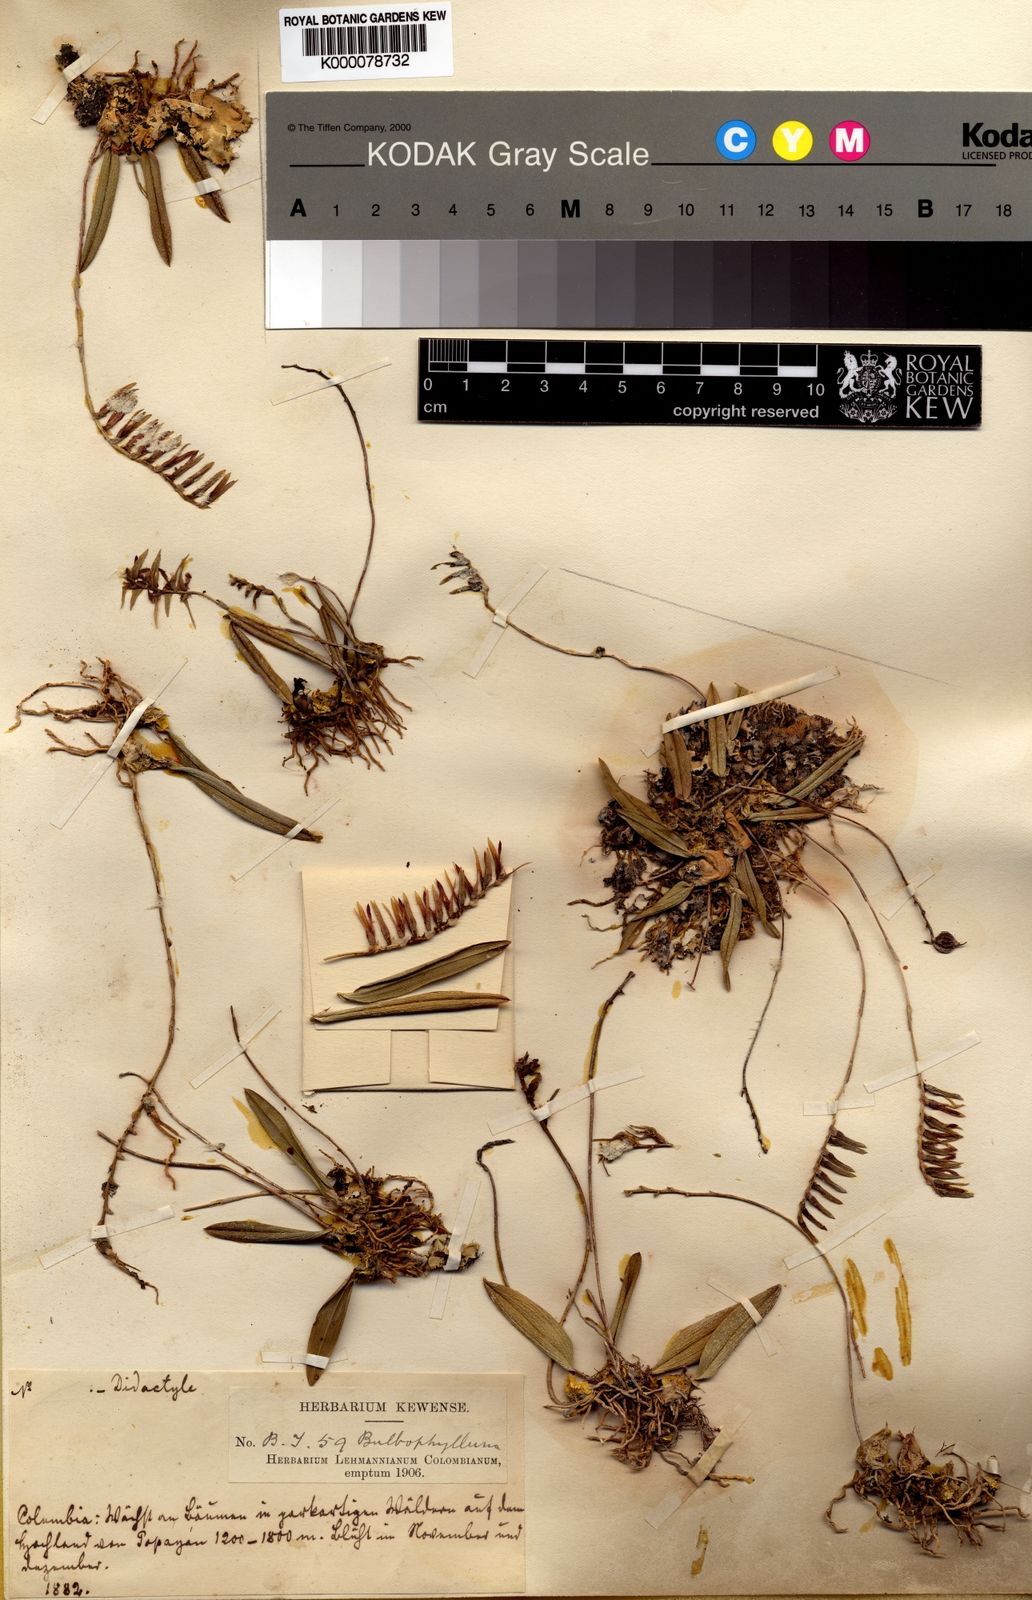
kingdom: Plantae
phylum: Tracheophyta
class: Liliopsida
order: Asparagales
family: Orchidaceae
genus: Bulbophyllum
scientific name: Bulbophyllum
